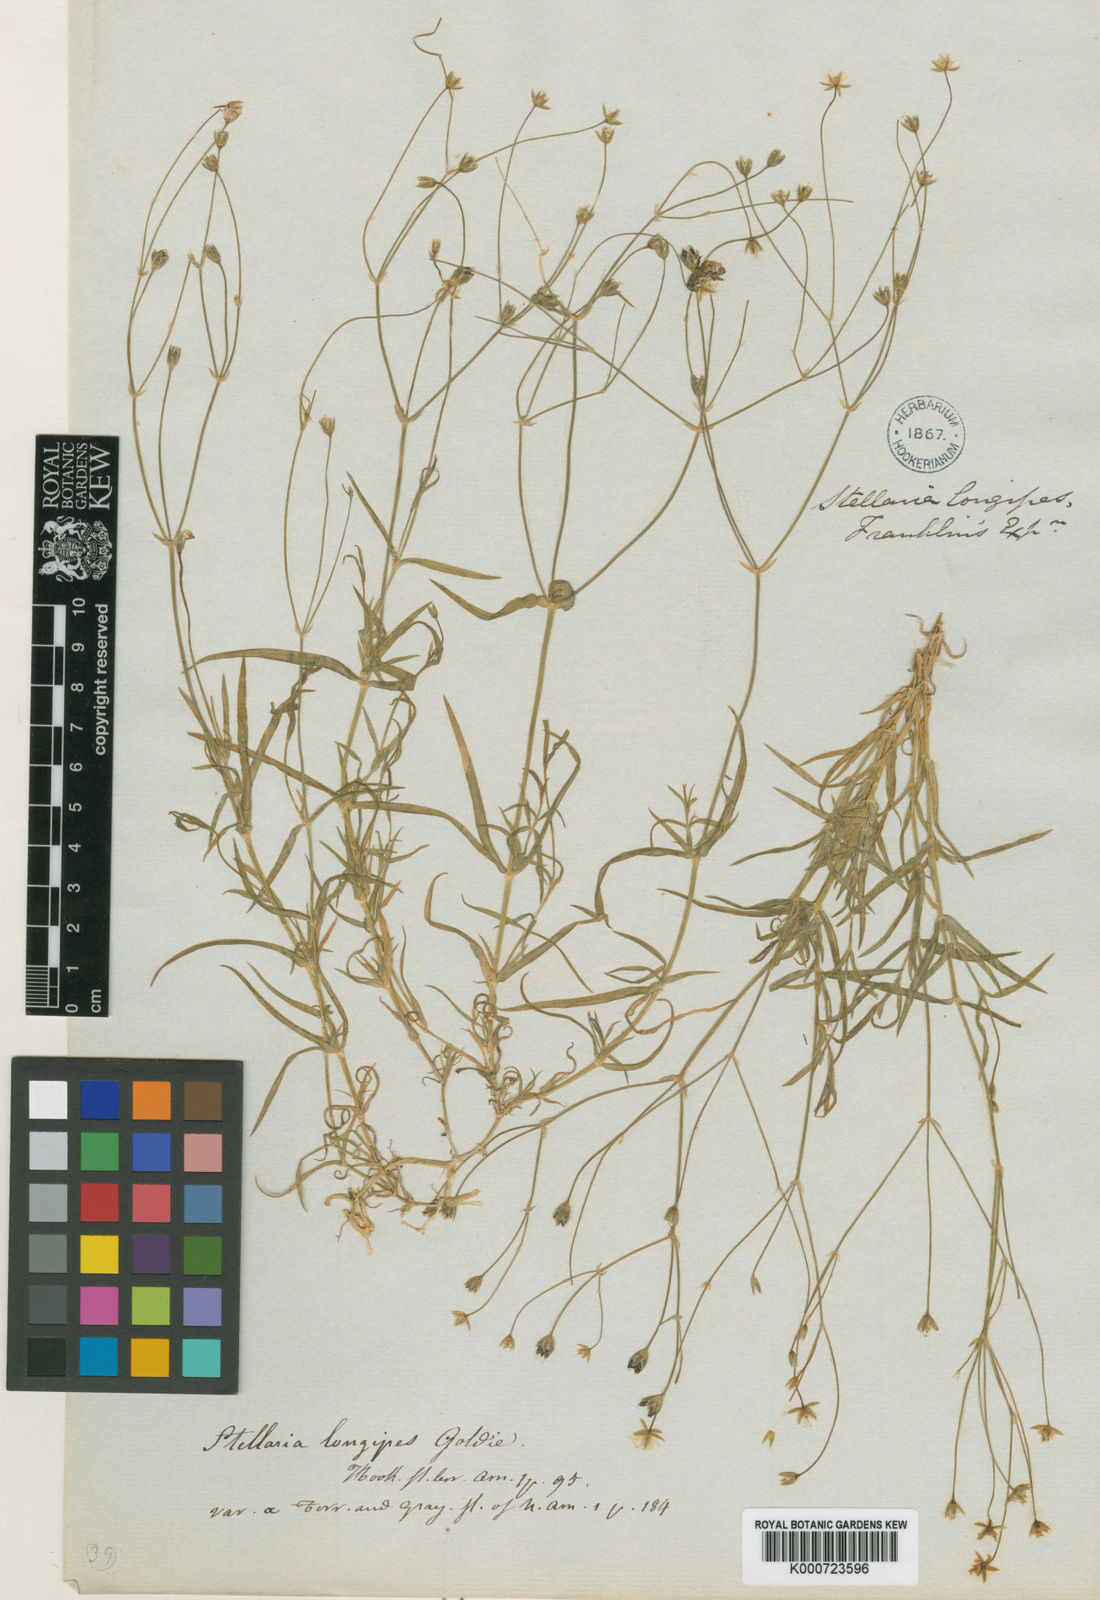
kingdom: Plantae
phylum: Tracheophyta
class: Magnoliopsida
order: Caryophyllales
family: Caryophyllaceae
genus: Stellaria
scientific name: Stellaria longipes
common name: Goldie's starwort
